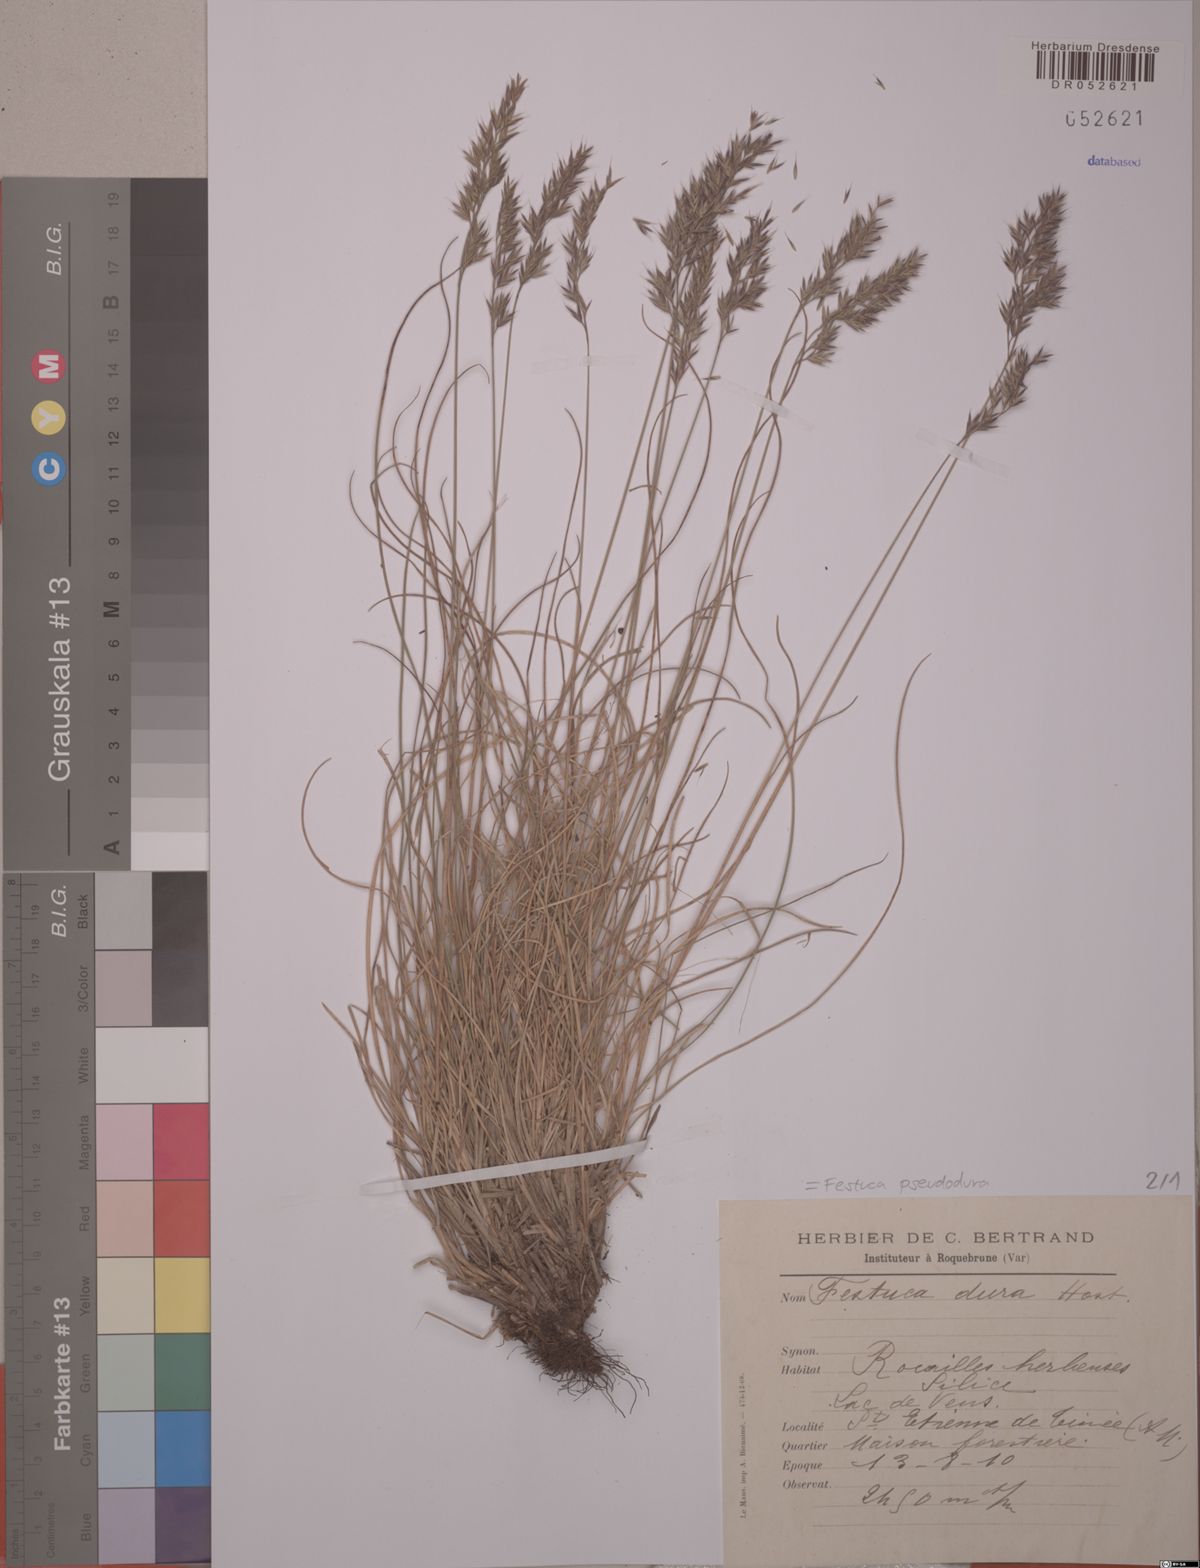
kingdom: Plantae
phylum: Tracheophyta
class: Liliopsida
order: Poales
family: Poaceae
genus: Festuca
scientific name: Festuca pseudodura
